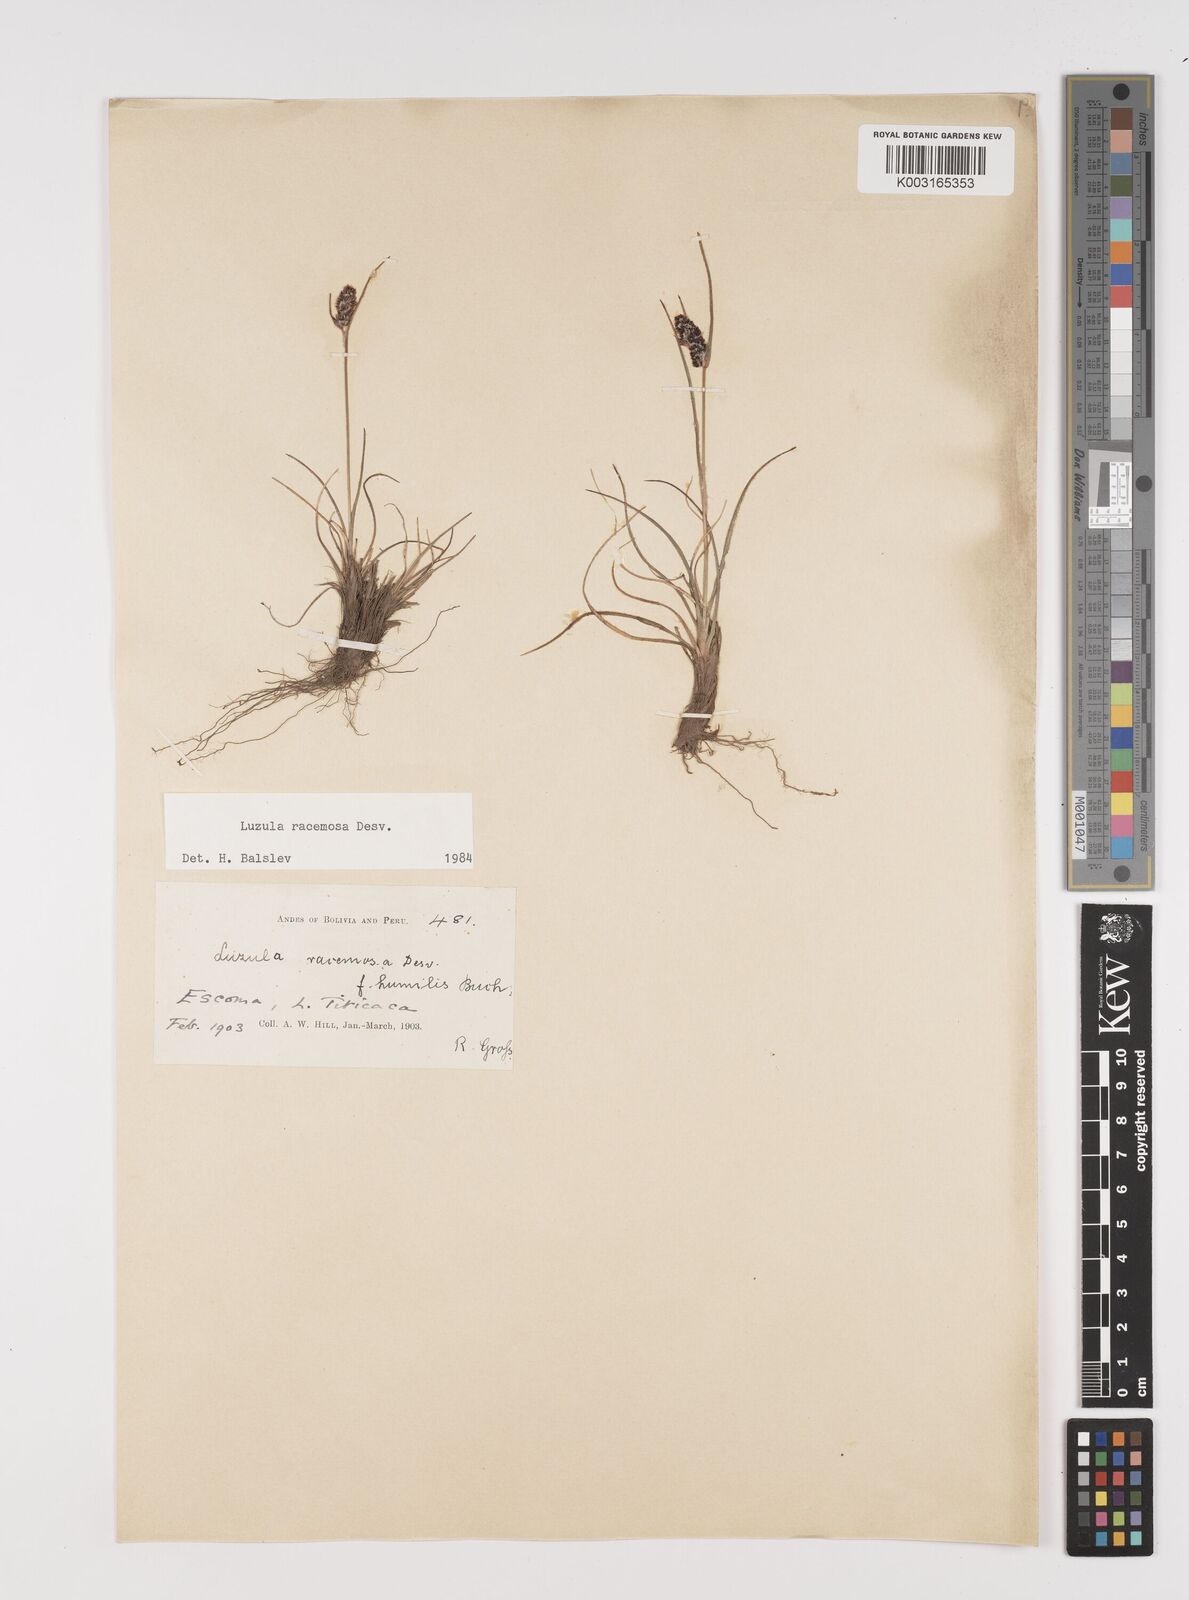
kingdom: Plantae
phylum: Tracheophyta
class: Liliopsida
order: Poales
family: Juncaceae
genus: Luzula
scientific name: Luzula racemosa
